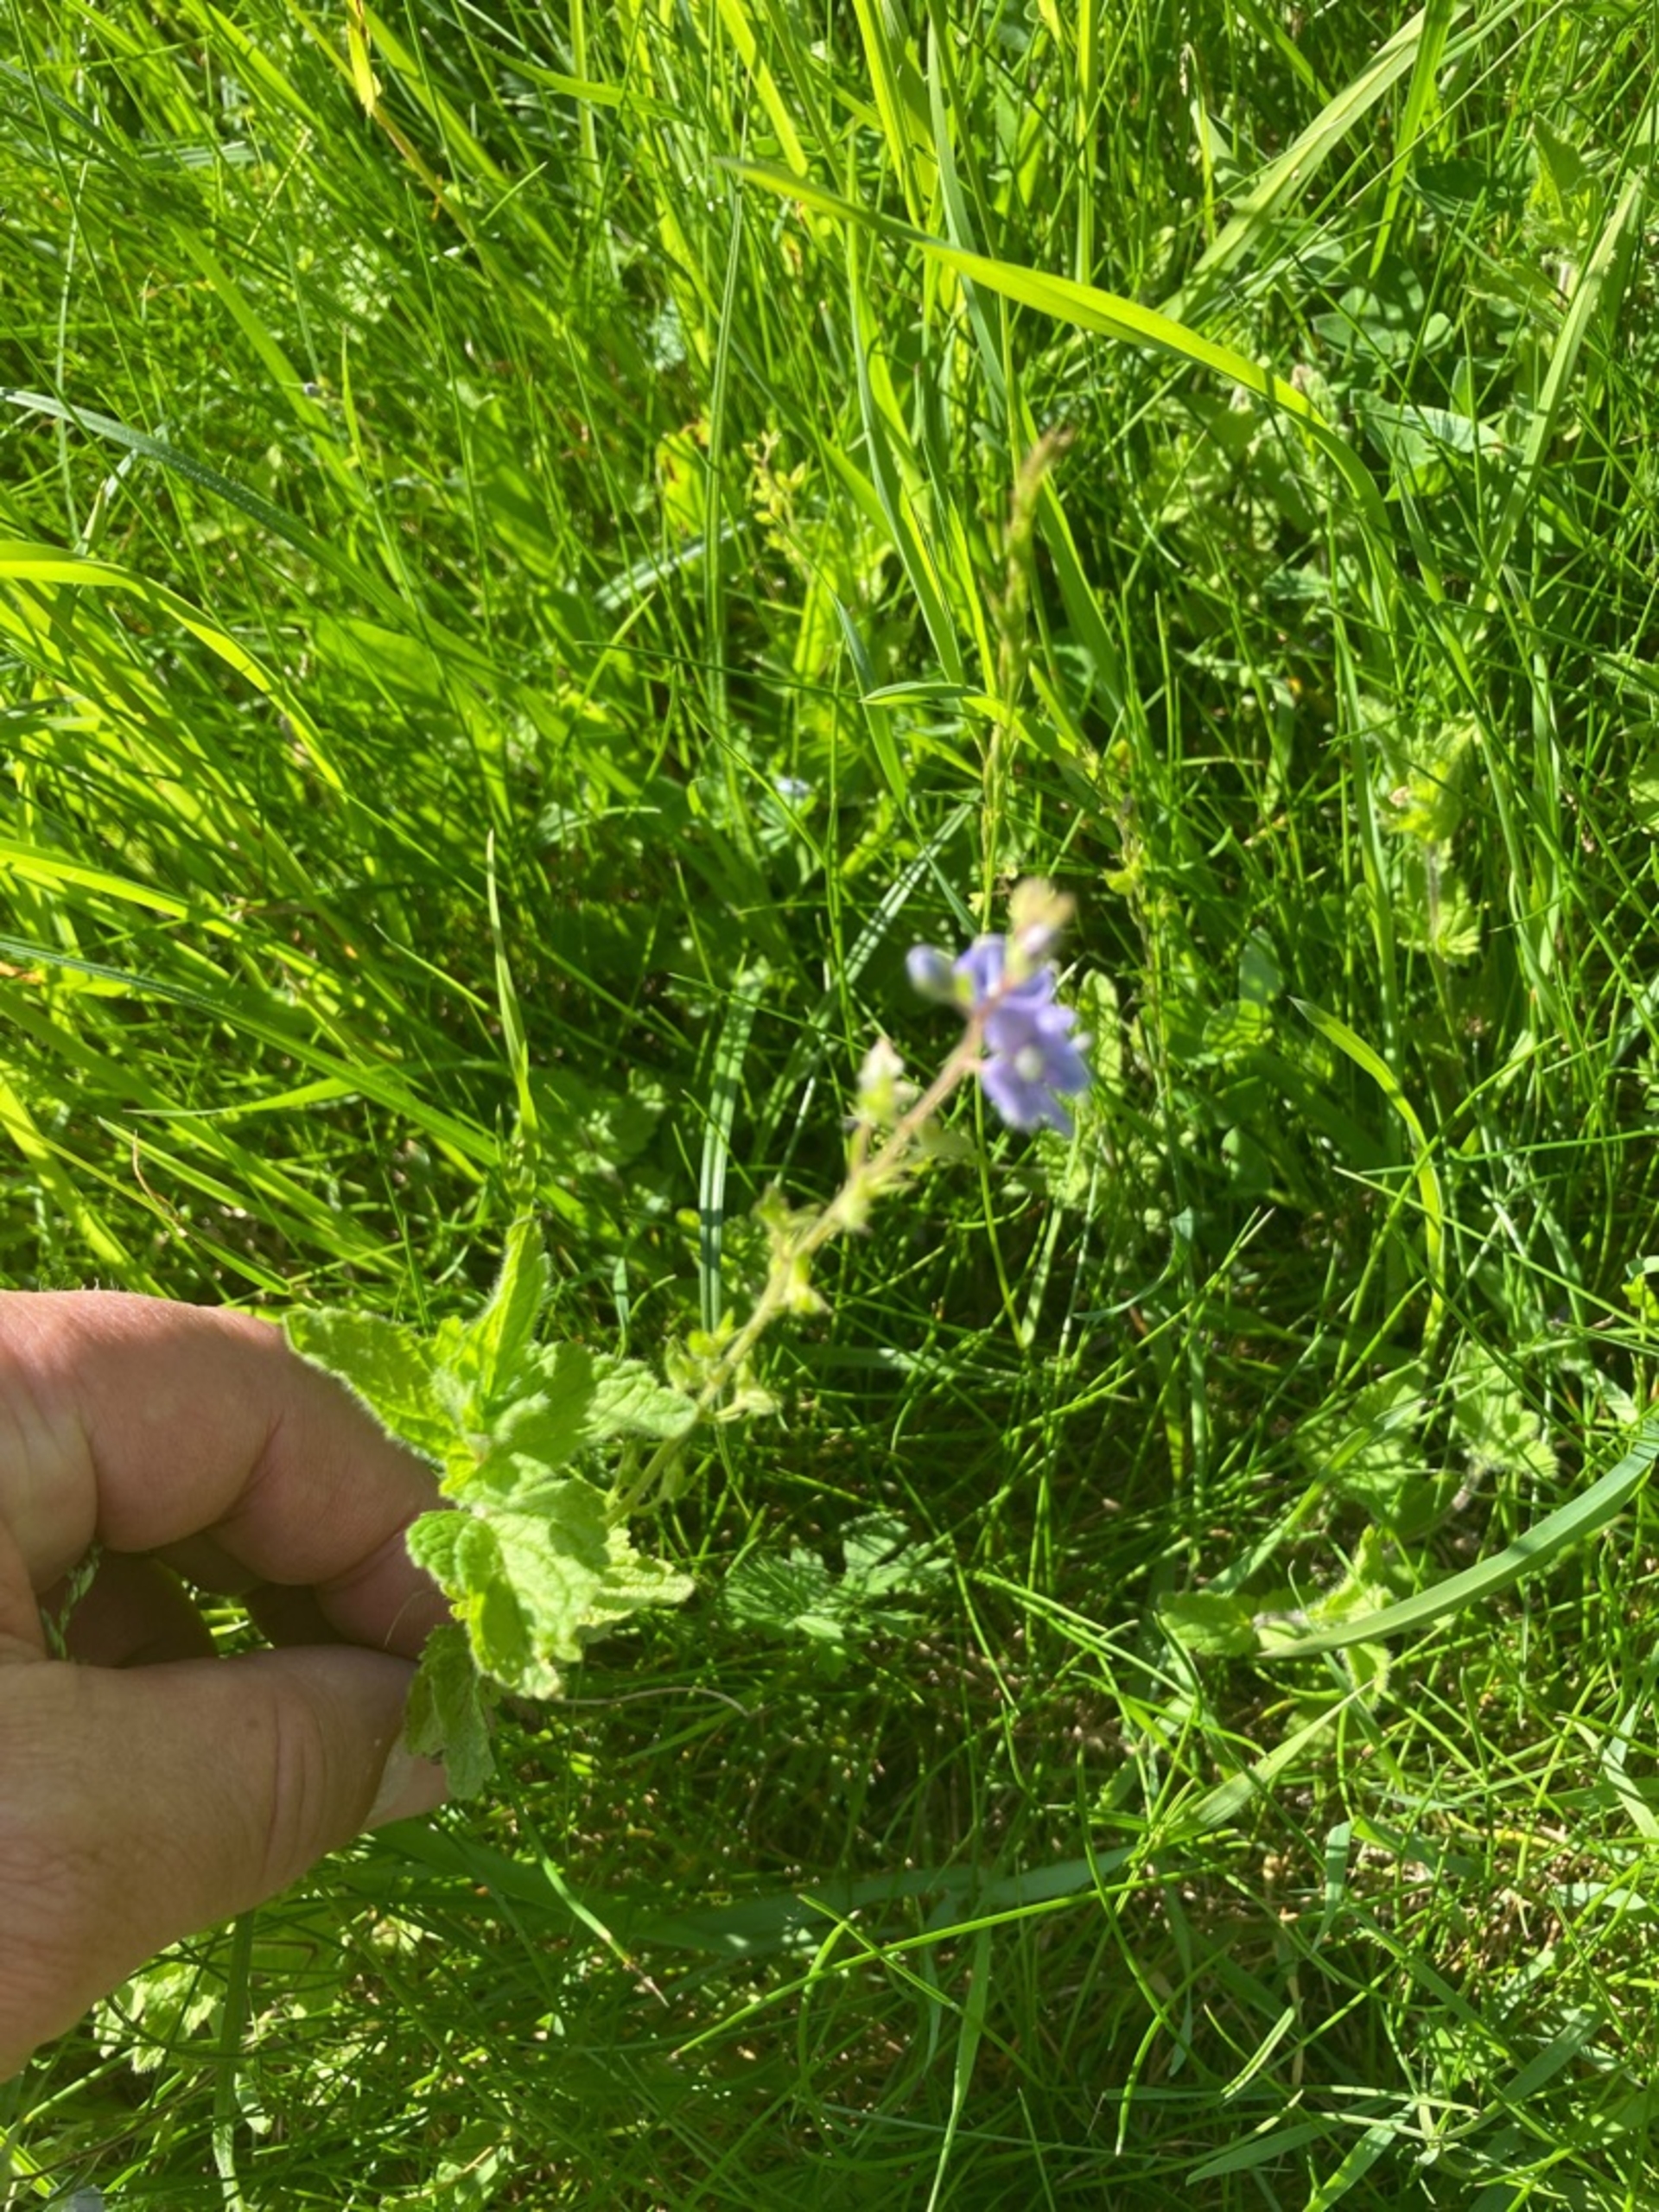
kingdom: Plantae
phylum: Tracheophyta
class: Magnoliopsida
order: Lamiales
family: Plantaginaceae
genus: Veronica
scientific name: Veronica chamaedrys
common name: Tveskægget ærenpris
